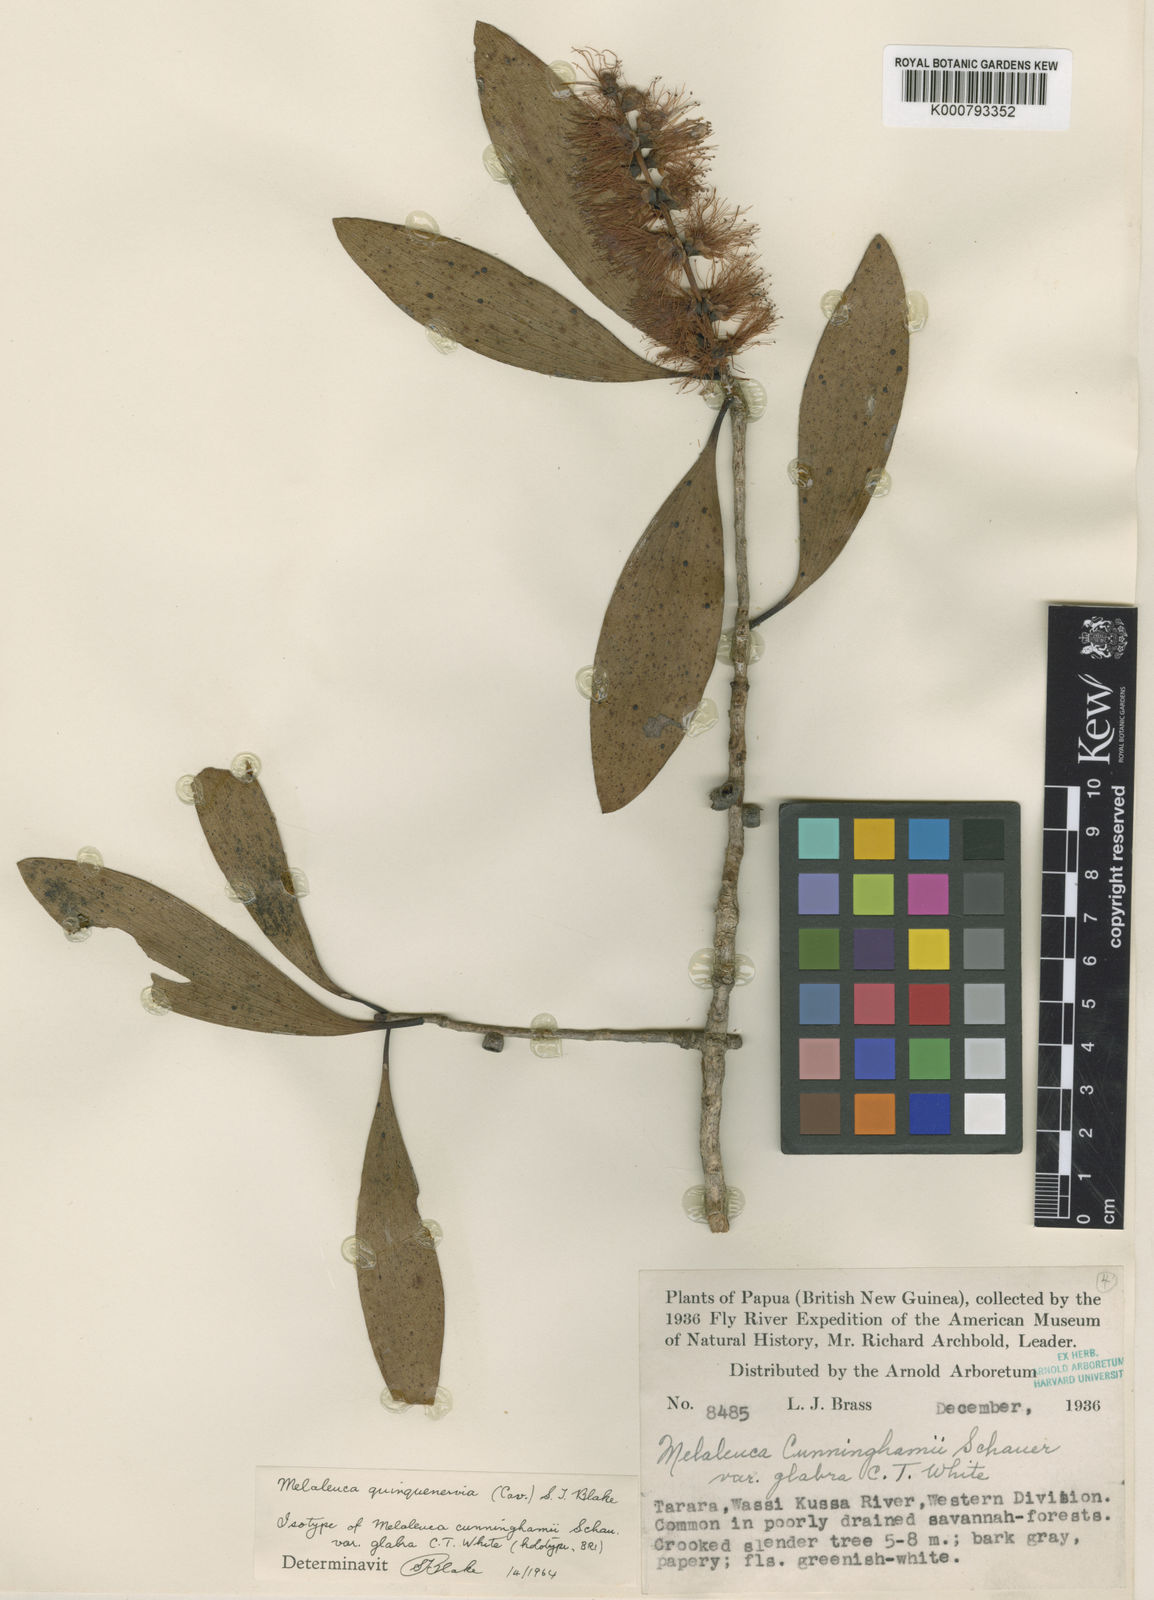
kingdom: Plantae
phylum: Tracheophyta
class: Magnoliopsida
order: Myrtales
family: Myrtaceae
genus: Melaleuca
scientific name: Melaleuca quinquenervia
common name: Punktree
